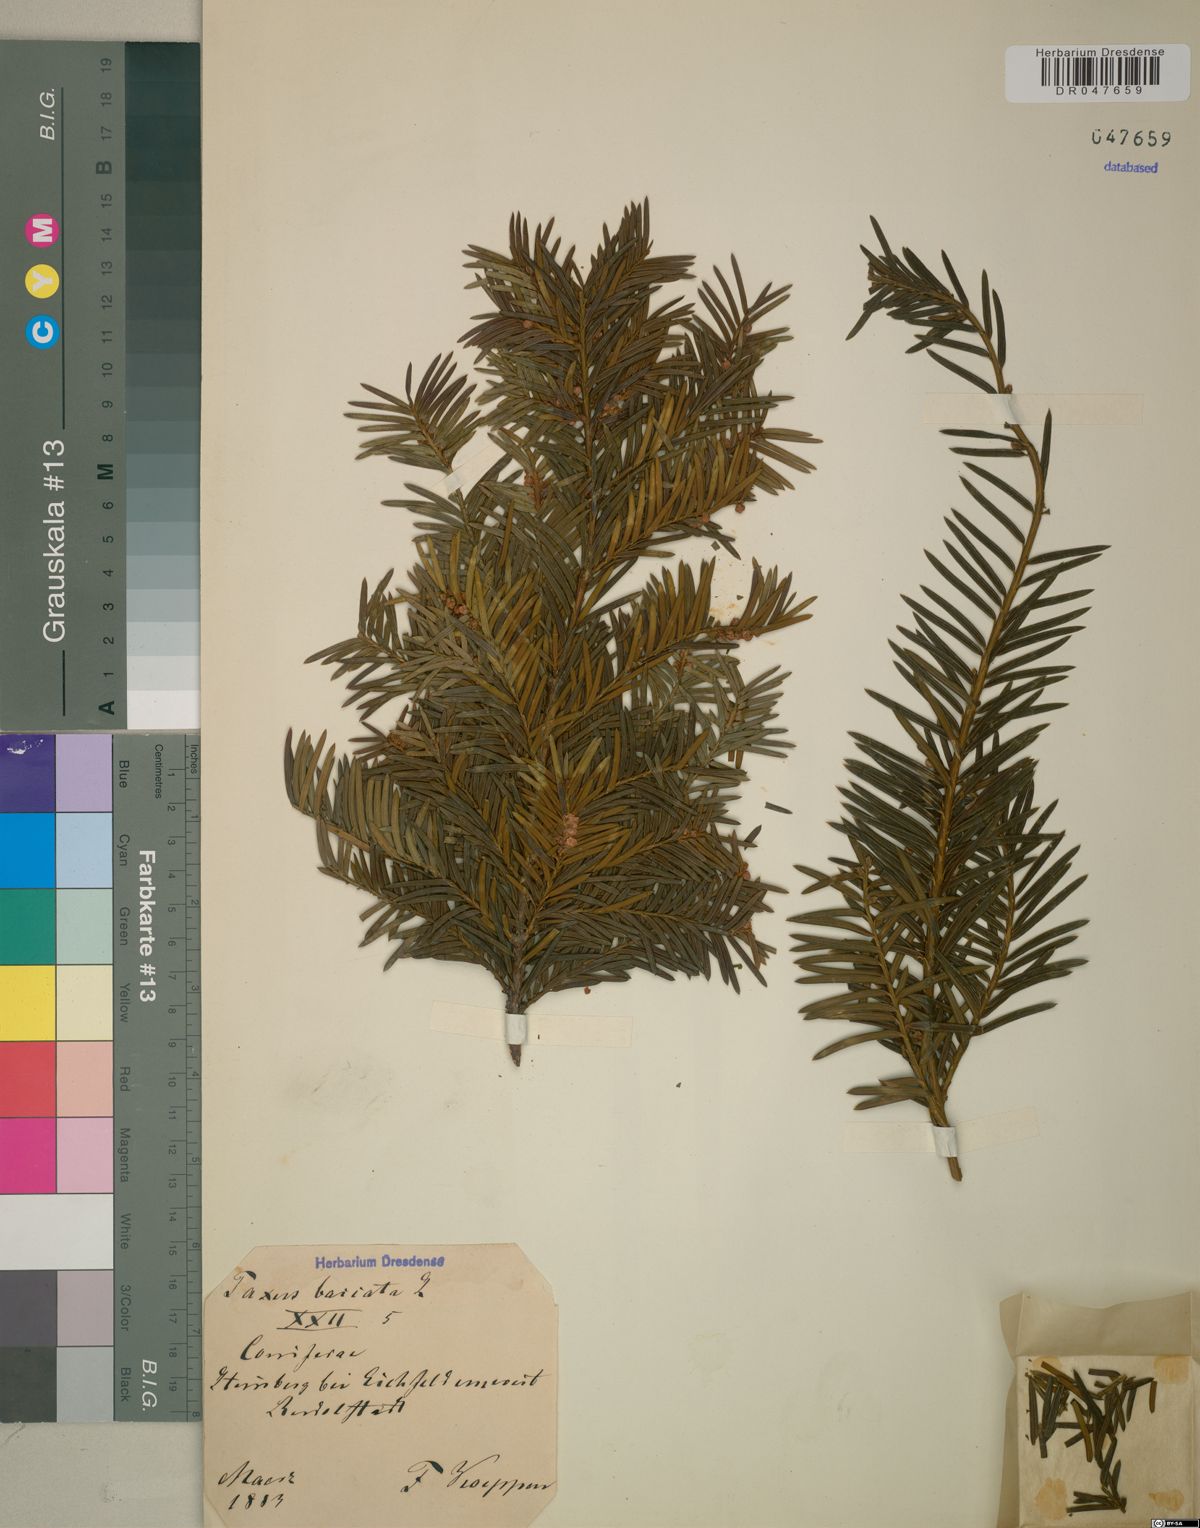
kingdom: Plantae
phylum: Tracheophyta
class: Pinopsida
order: Pinales
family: Taxaceae
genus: Taxus
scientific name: Taxus baccata
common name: Yew
